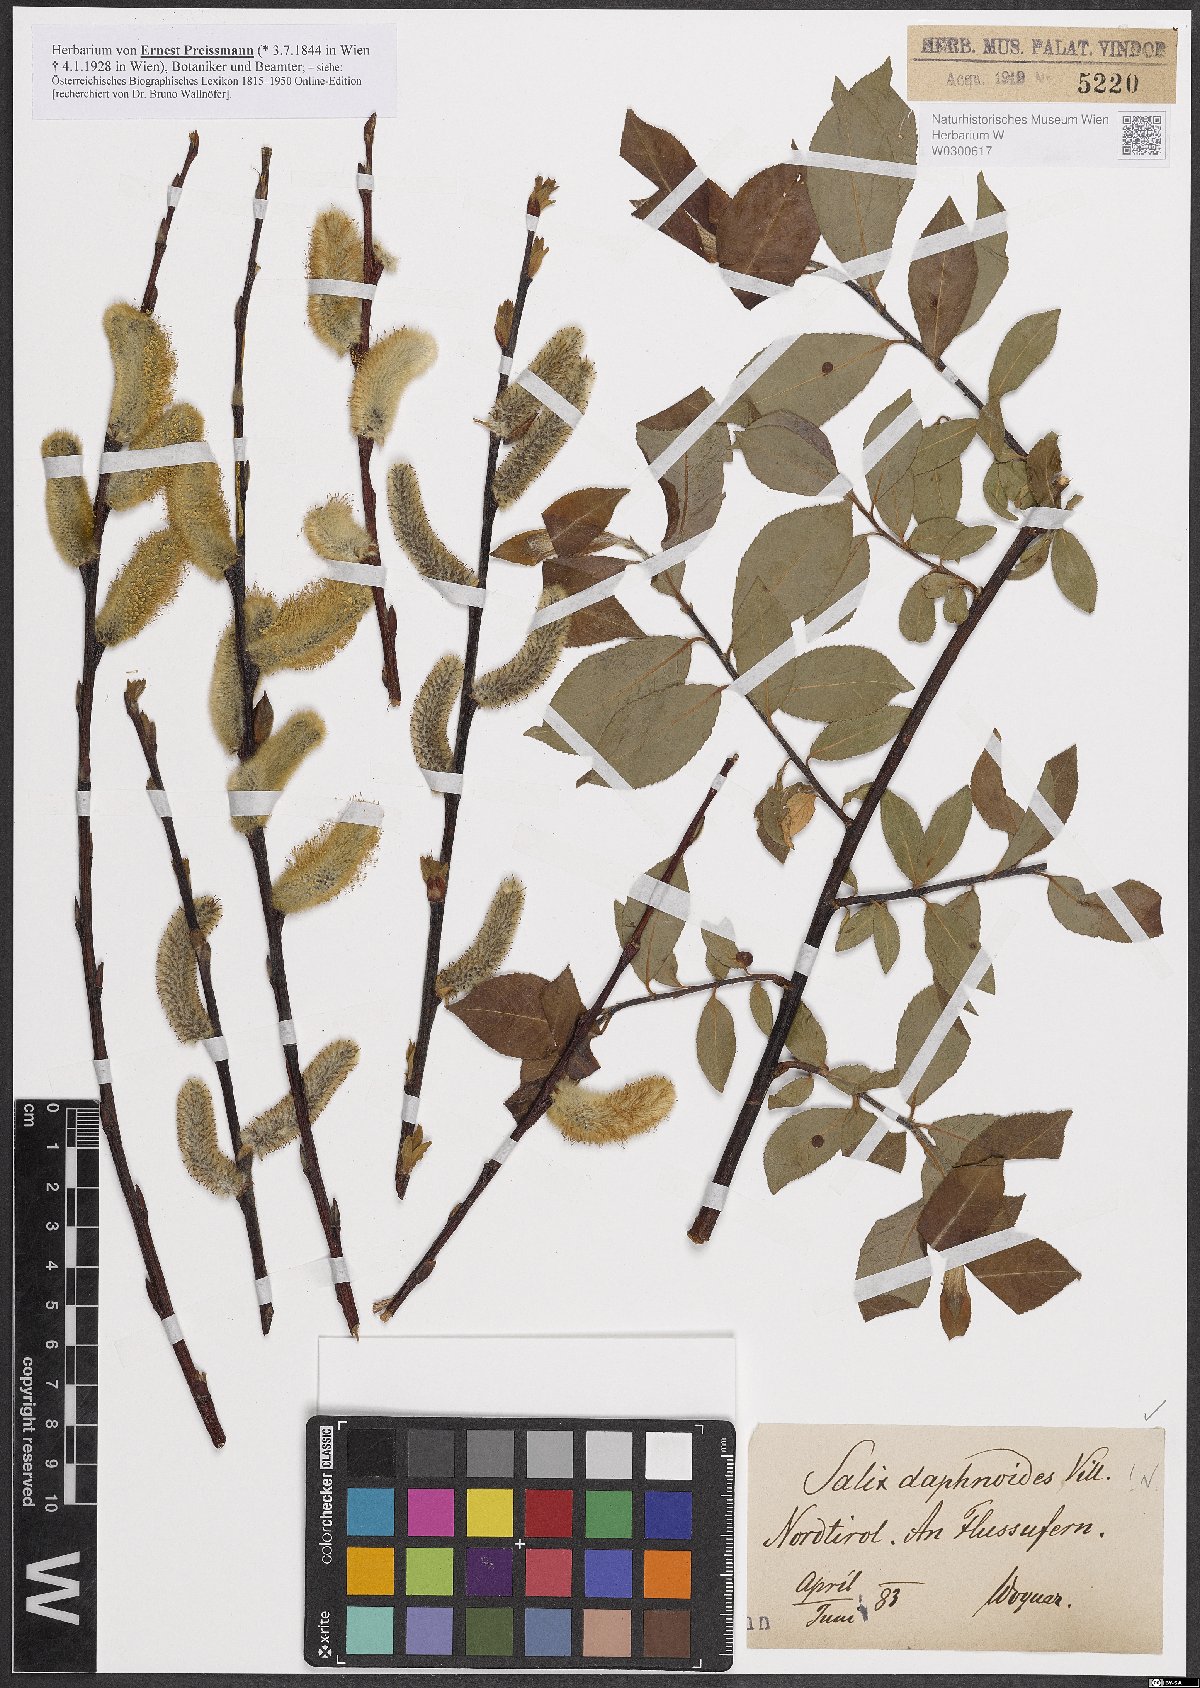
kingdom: Plantae
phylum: Tracheophyta
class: Magnoliopsida
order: Malpighiales
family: Salicaceae
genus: Salix
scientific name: Salix daphnoides
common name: European violet-willow
